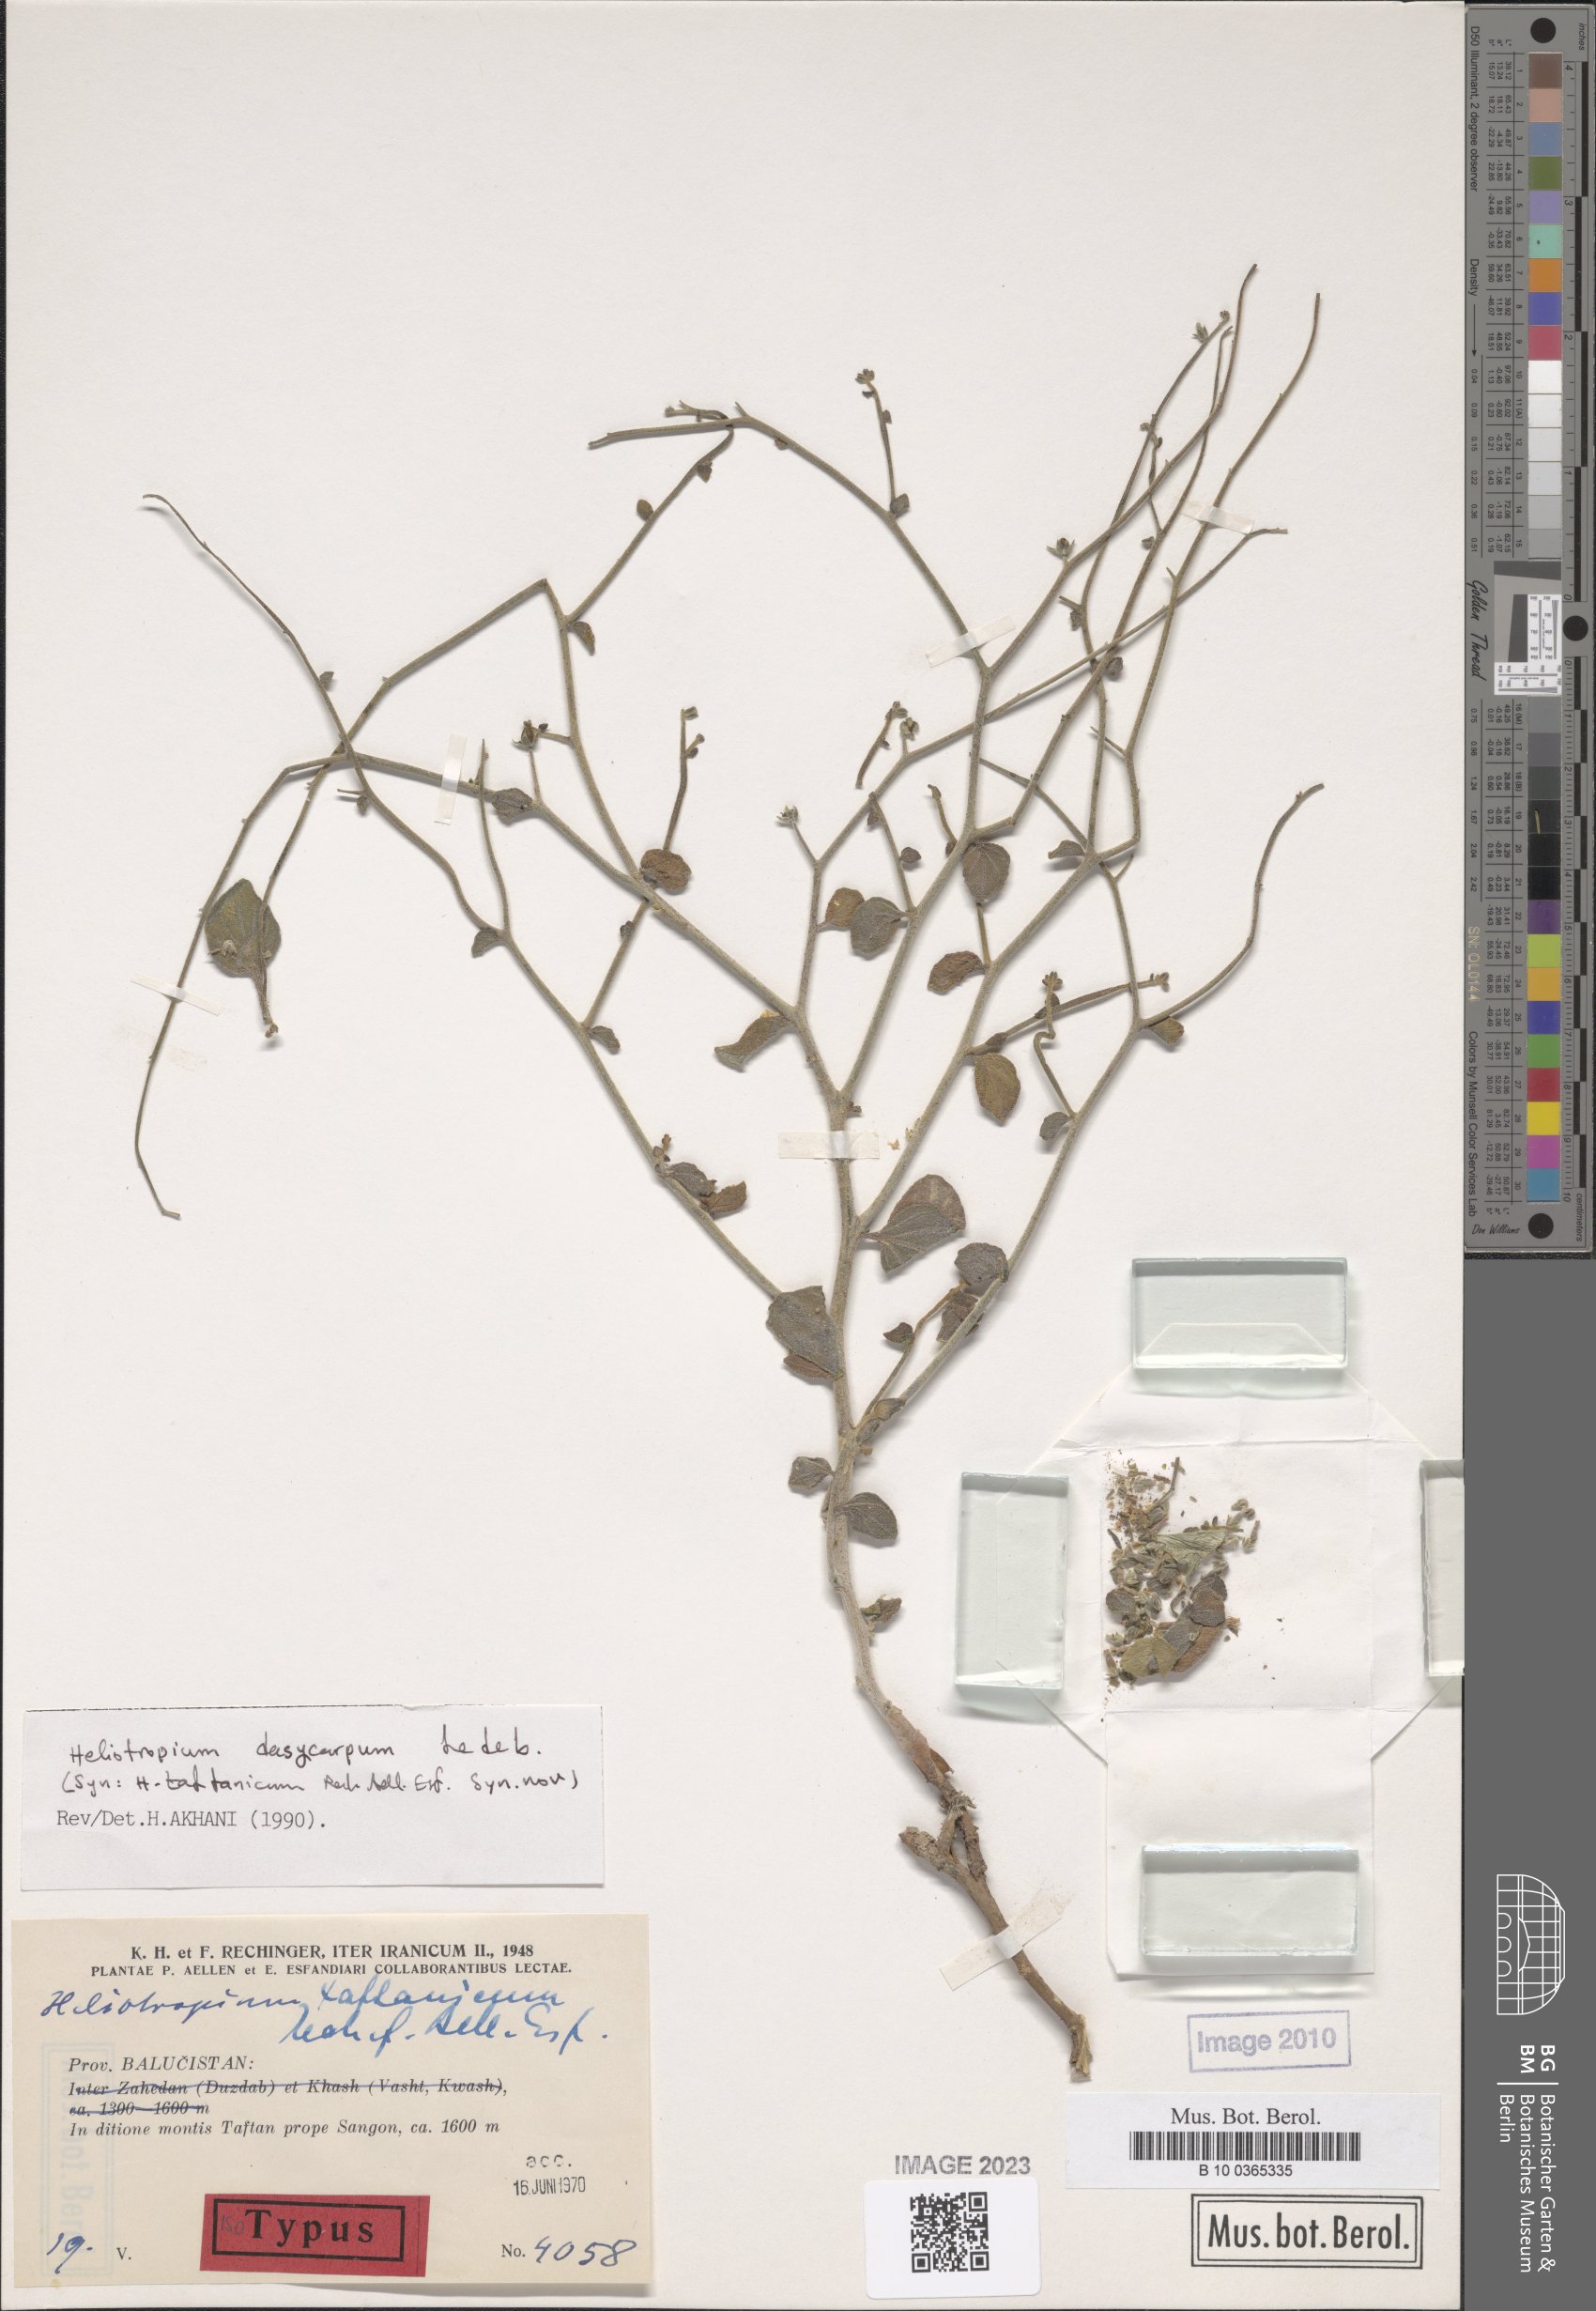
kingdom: Plantae
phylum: Tracheophyta
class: Magnoliopsida
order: Boraginales
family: Heliotropiaceae
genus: Heliotropium
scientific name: Heliotropium dasycarpum
